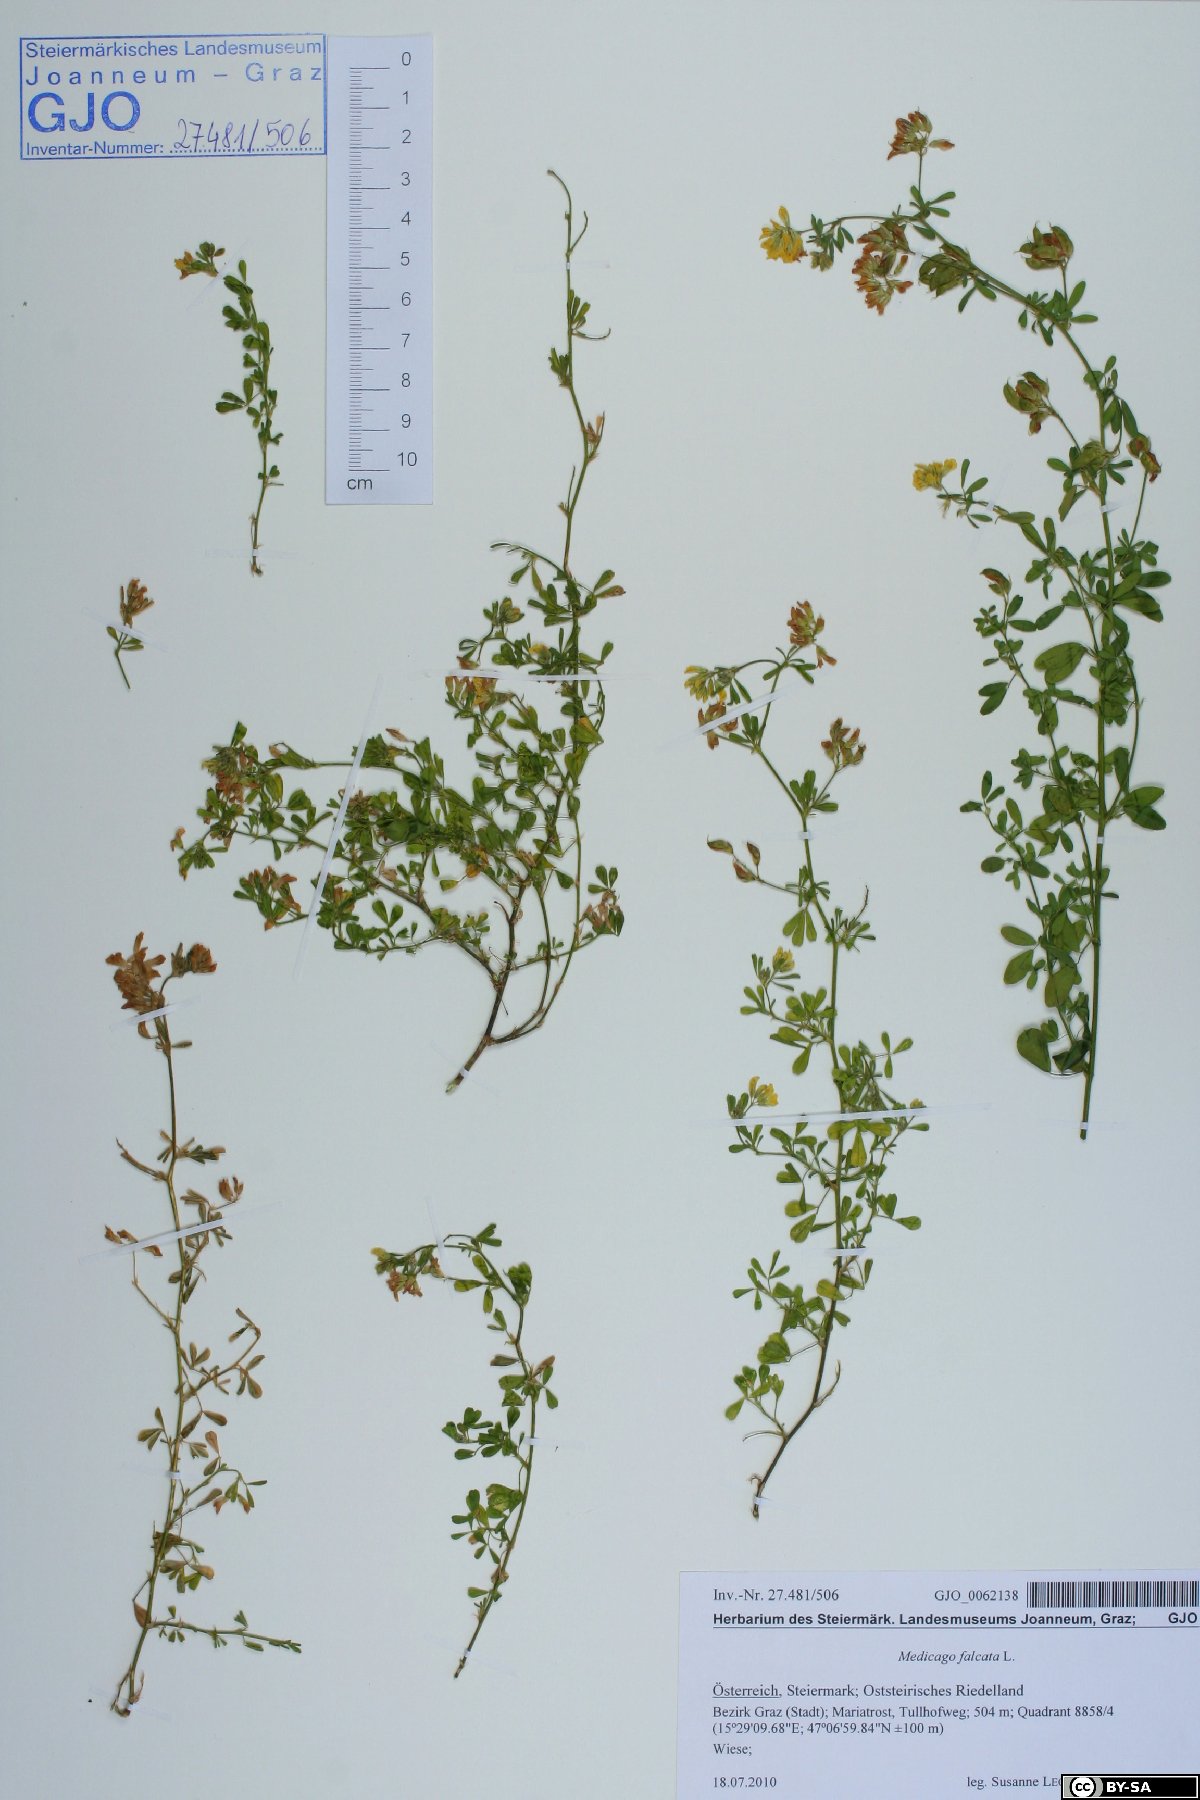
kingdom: Plantae
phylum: Tracheophyta
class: Magnoliopsida
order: Fabales
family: Fabaceae
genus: Medicago
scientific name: Medicago falcata
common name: Sickle medick
